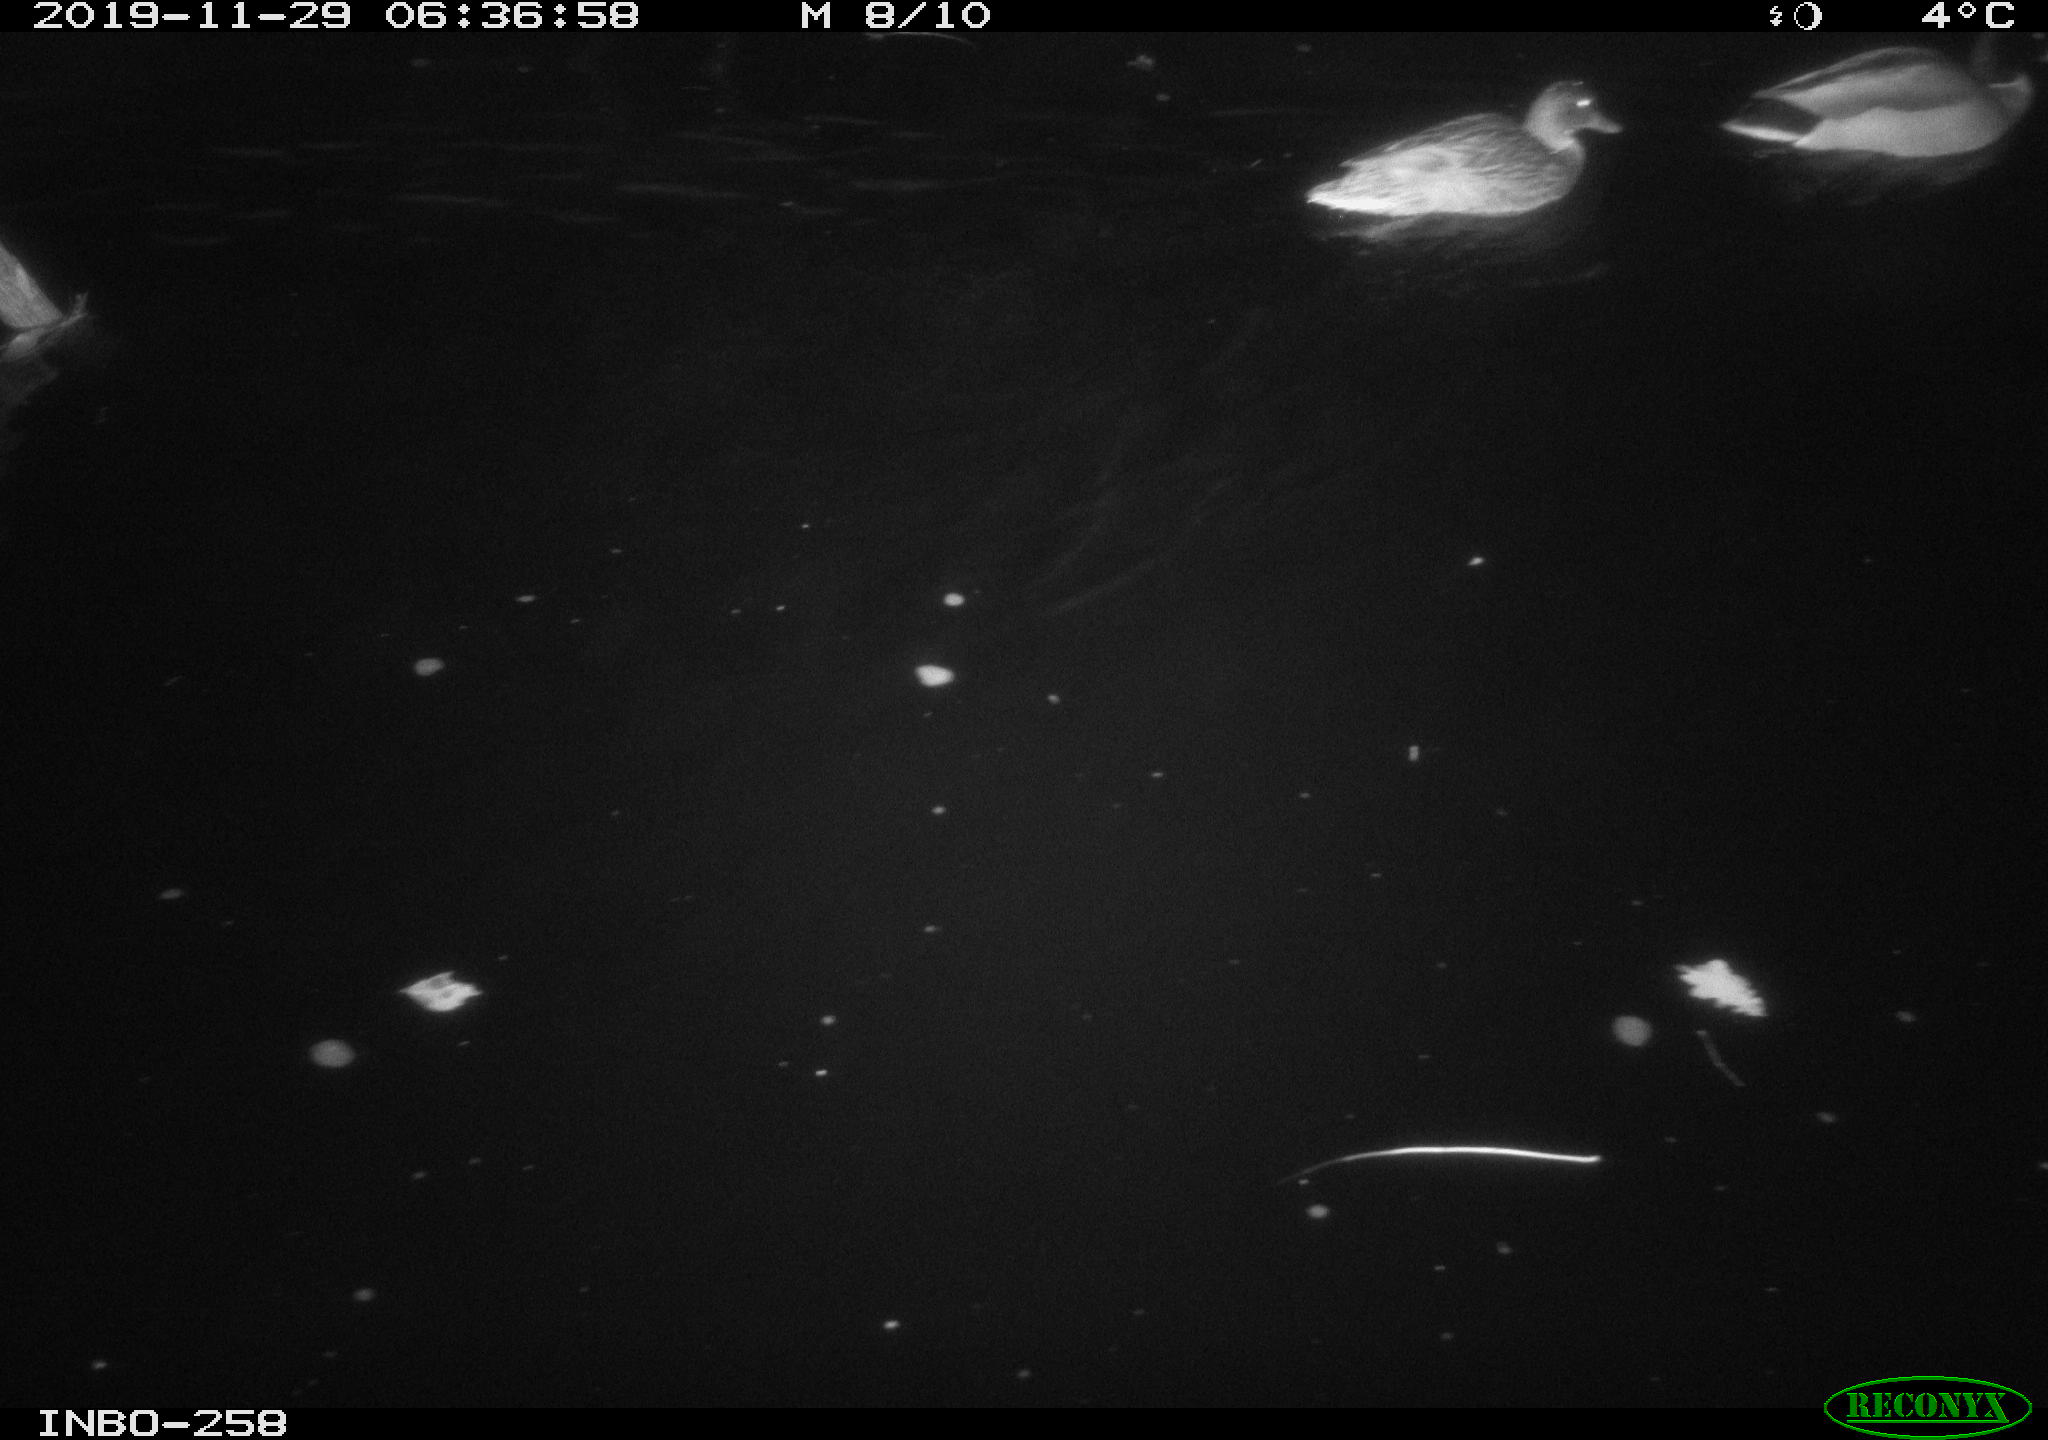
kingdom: Animalia
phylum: Chordata
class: Aves
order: Anseriformes
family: Anatidae
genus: Anas
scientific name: Anas platyrhynchos
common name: Mallard
